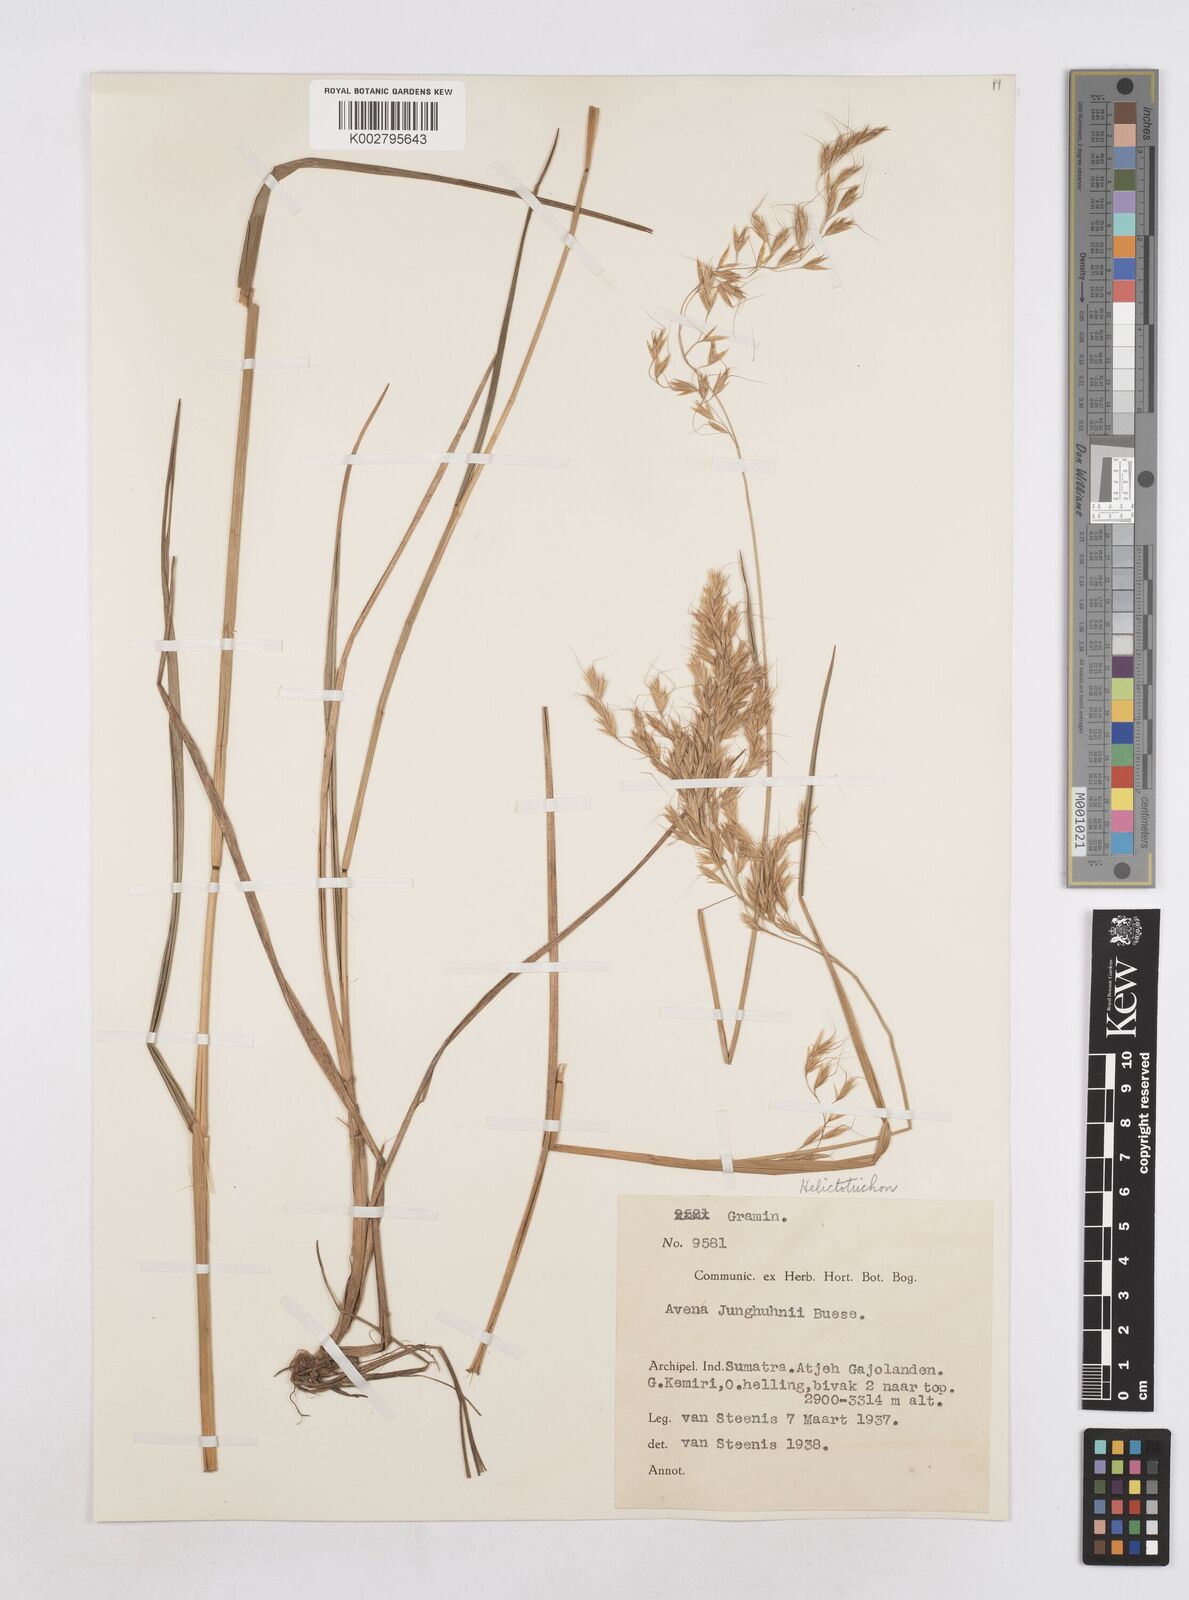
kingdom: Plantae
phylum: Tracheophyta
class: Liliopsida
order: Poales
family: Poaceae
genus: Trisetopsis
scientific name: Trisetopsis junghuhnii
